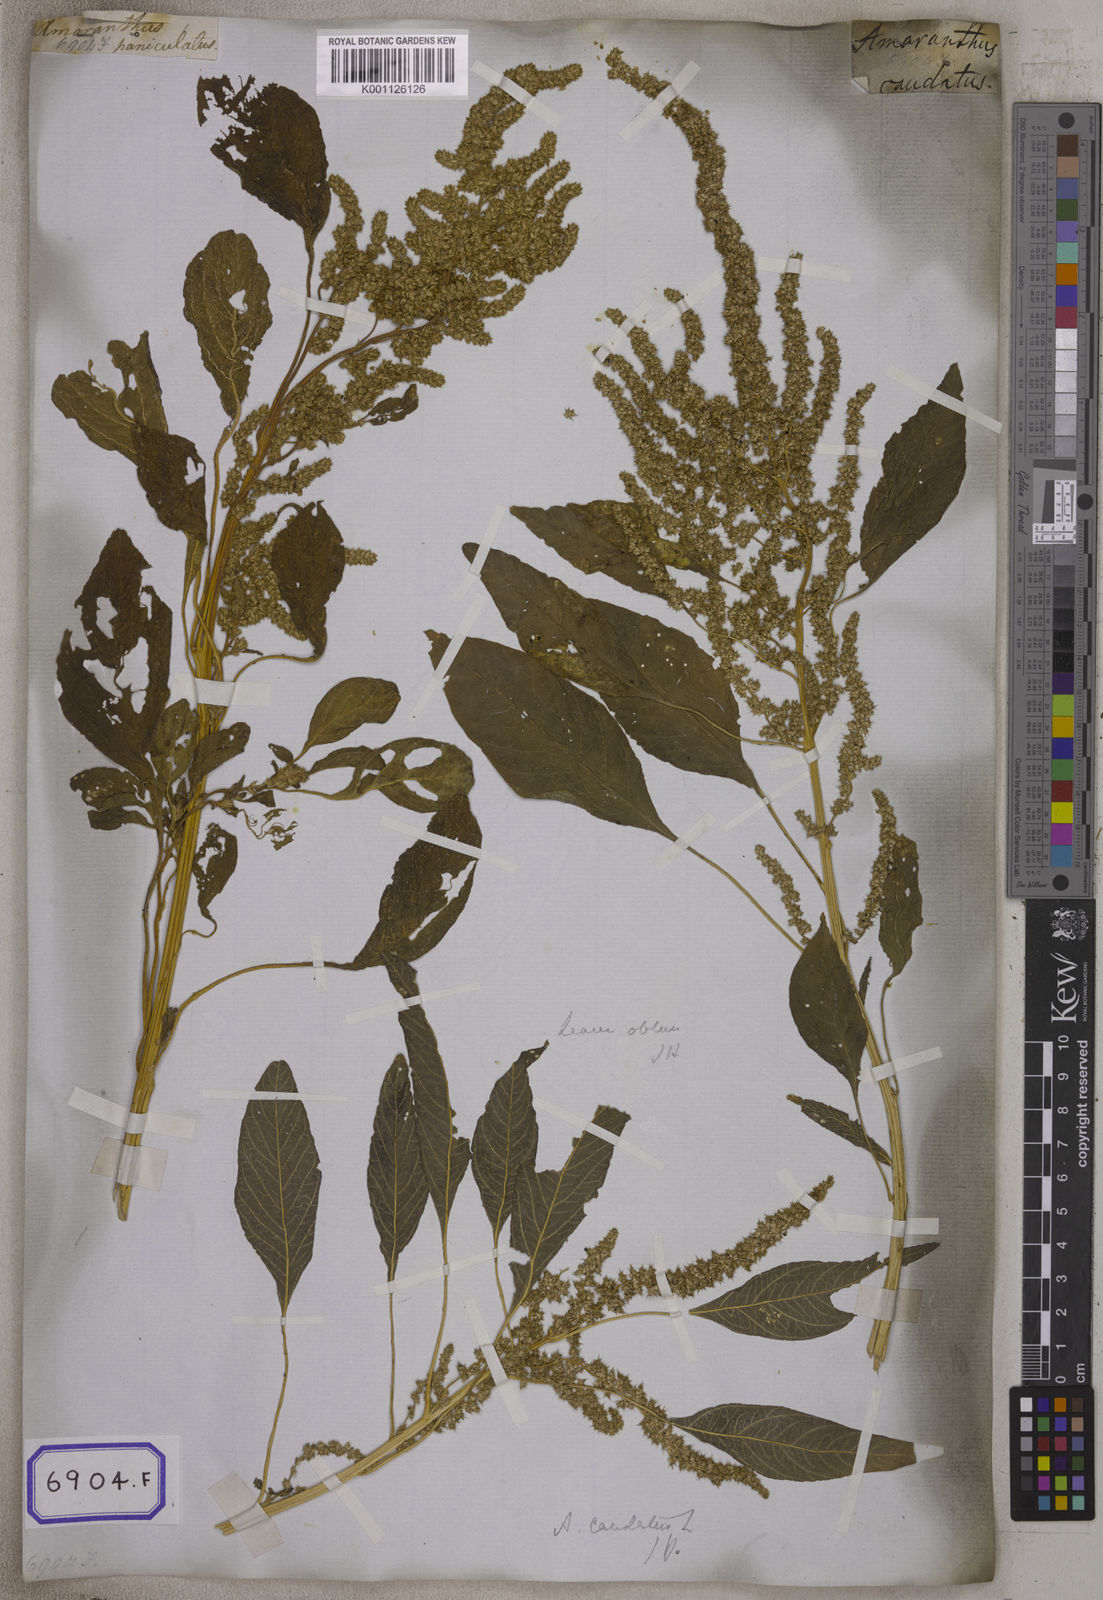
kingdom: Plantae
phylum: Tracheophyta
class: Magnoliopsida
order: Caryophyllales
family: Amaranthaceae
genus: Amaranthus
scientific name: Amaranthus
